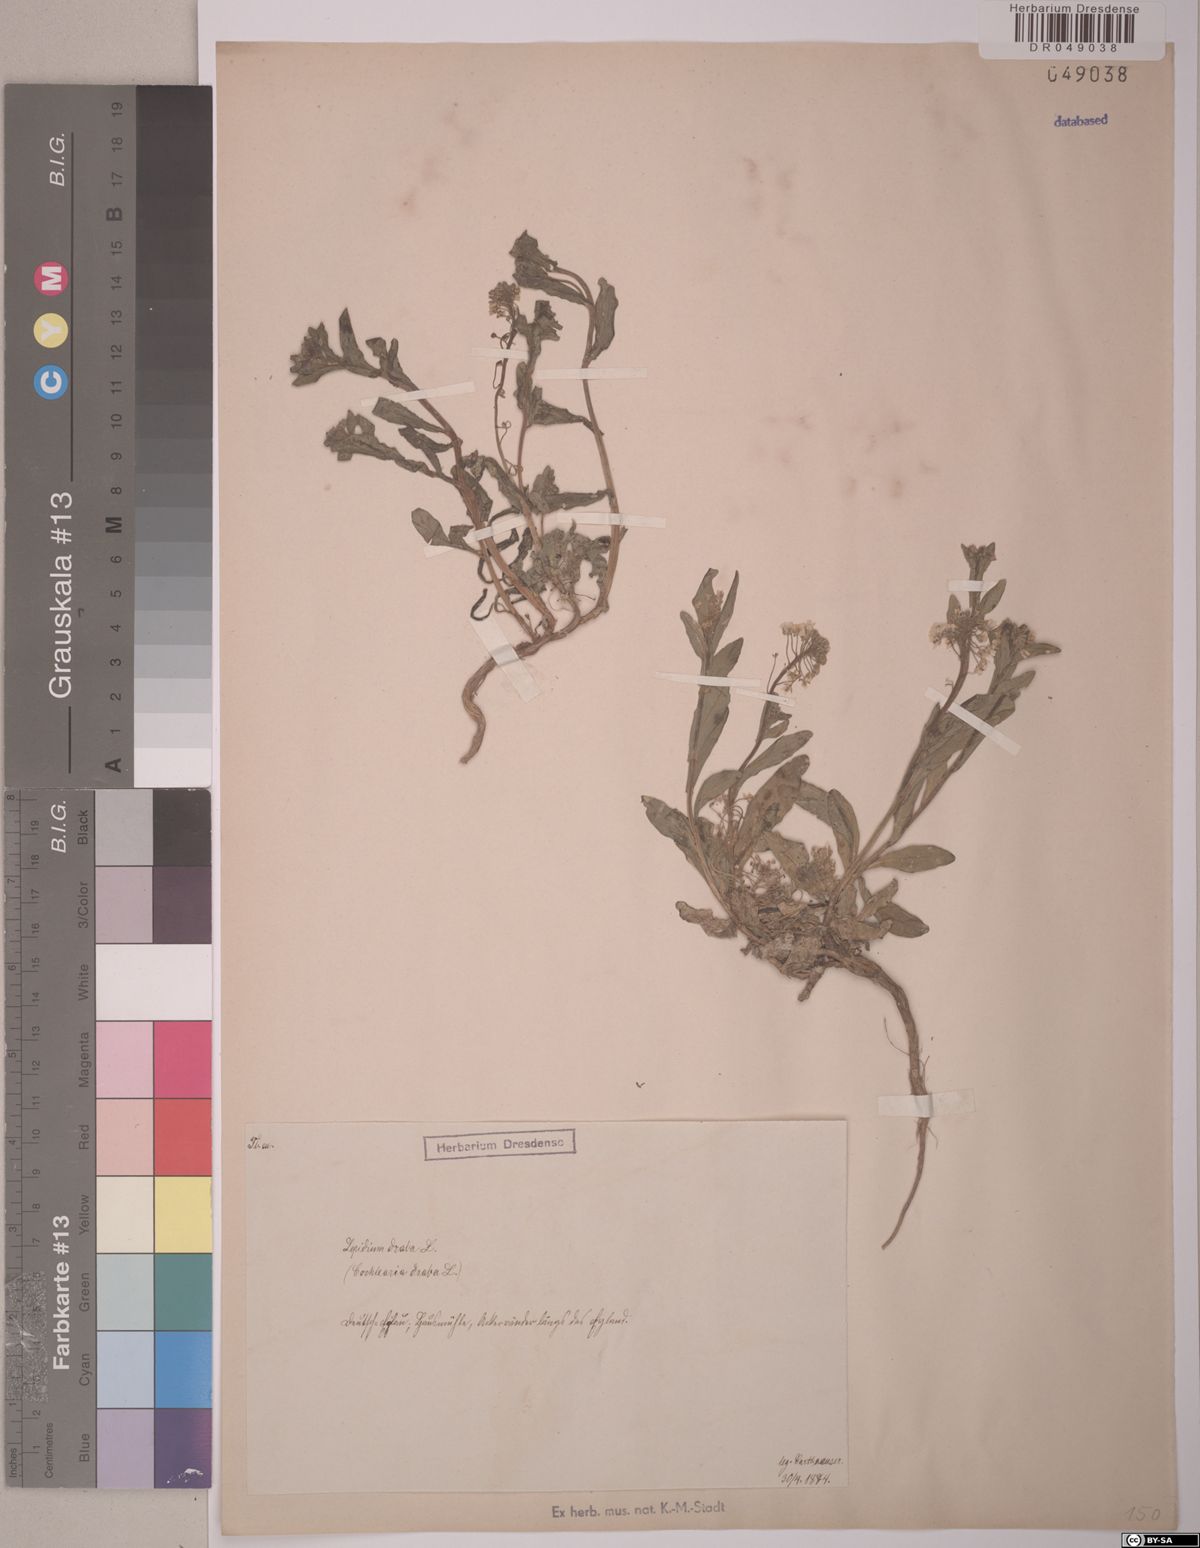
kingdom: Plantae
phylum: Tracheophyta
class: Magnoliopsida
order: Brassicales
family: Brassicaceae
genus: Lepidium
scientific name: Lepidium draba
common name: Hoary cress
